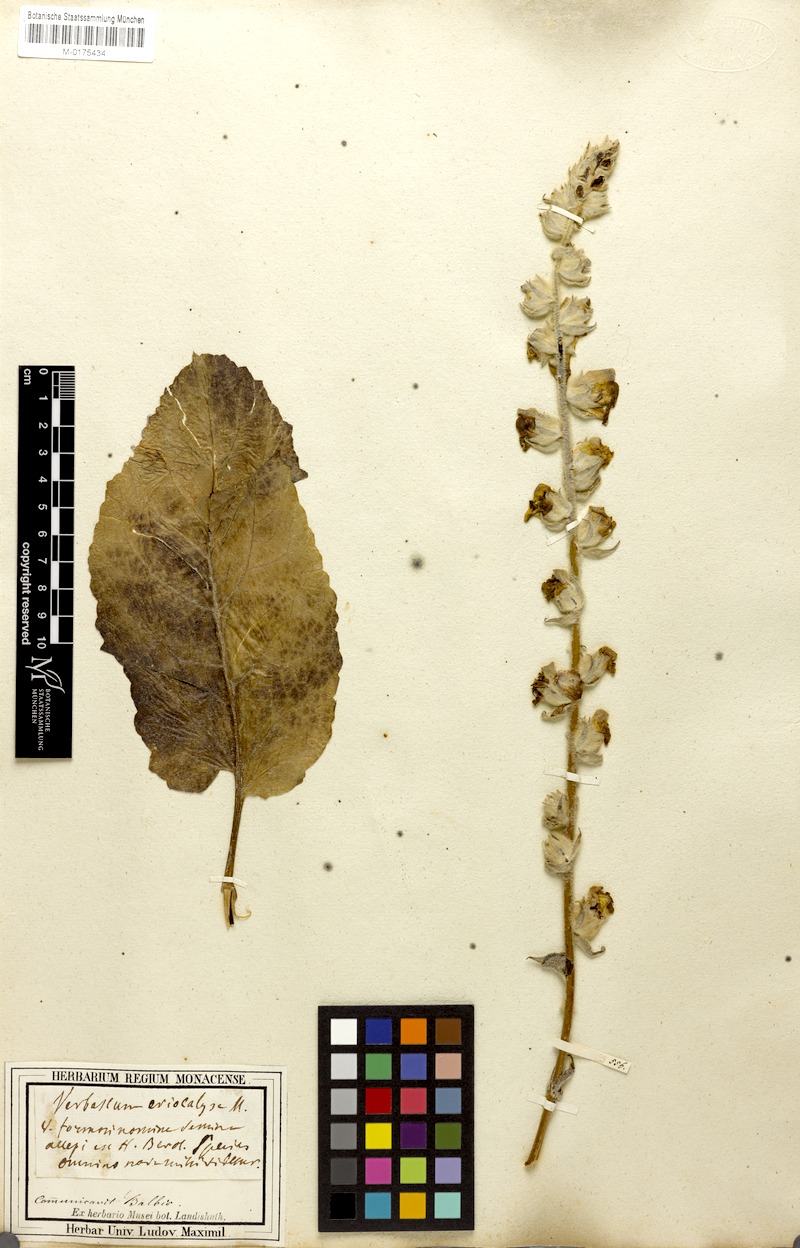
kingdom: Plantae
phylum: Tracheophyta
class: Magnoliopsida
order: Lamiales
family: Scrophulariaceae
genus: Verbascum
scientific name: Verbascum
